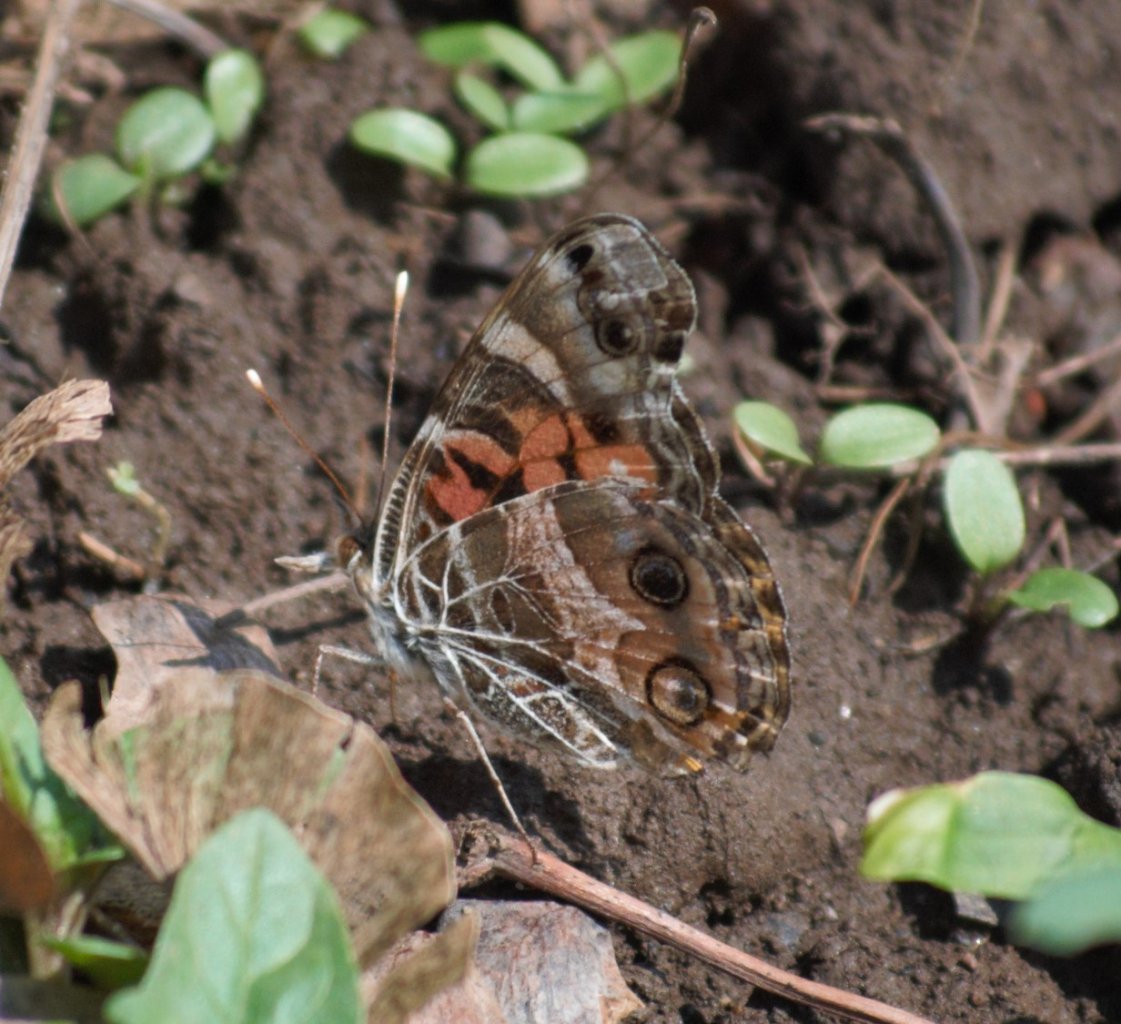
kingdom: Animalia
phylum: Arthropoda
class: Insecta
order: Lepidoptera
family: Nymphalidae
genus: Vanessa
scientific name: Vanessa virginiensis
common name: American Lady
